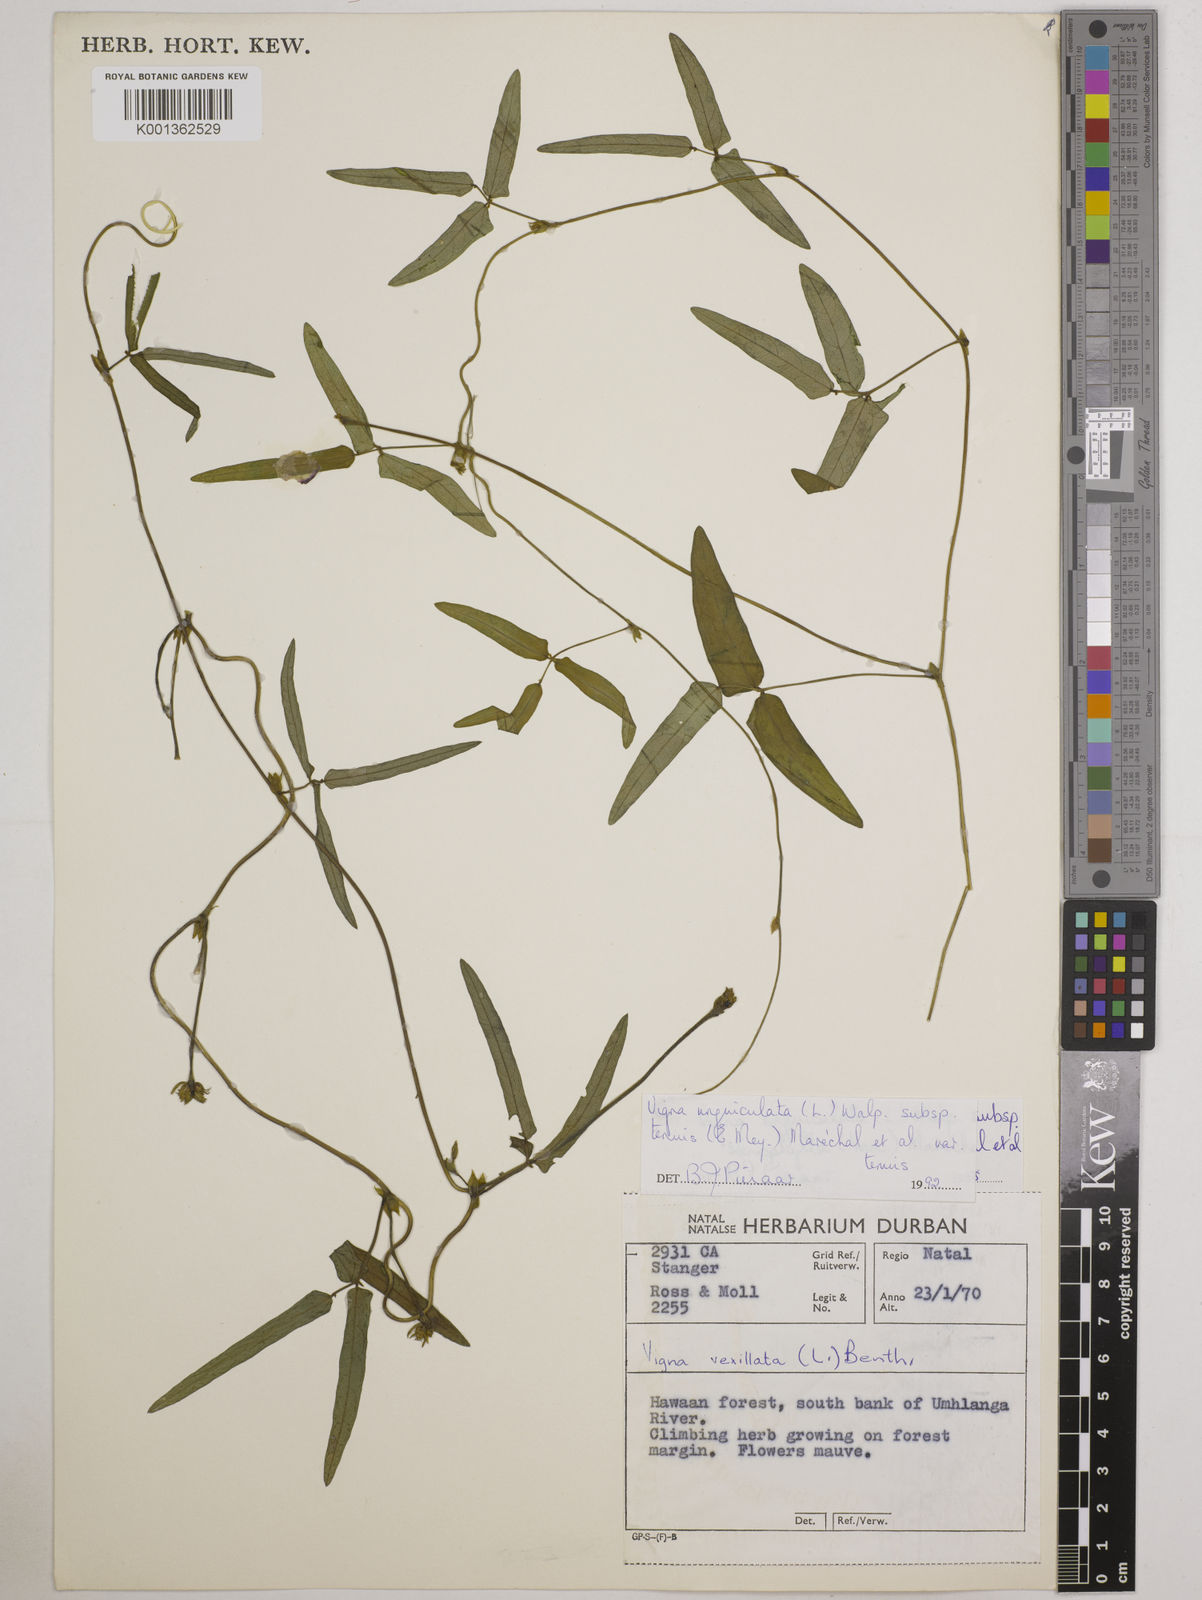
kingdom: Plantae
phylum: Tracheophyta
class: Magnoliopsida
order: Fabales
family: Fabaceae
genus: Vigna
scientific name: Vigna unguiculata
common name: Cowpea
